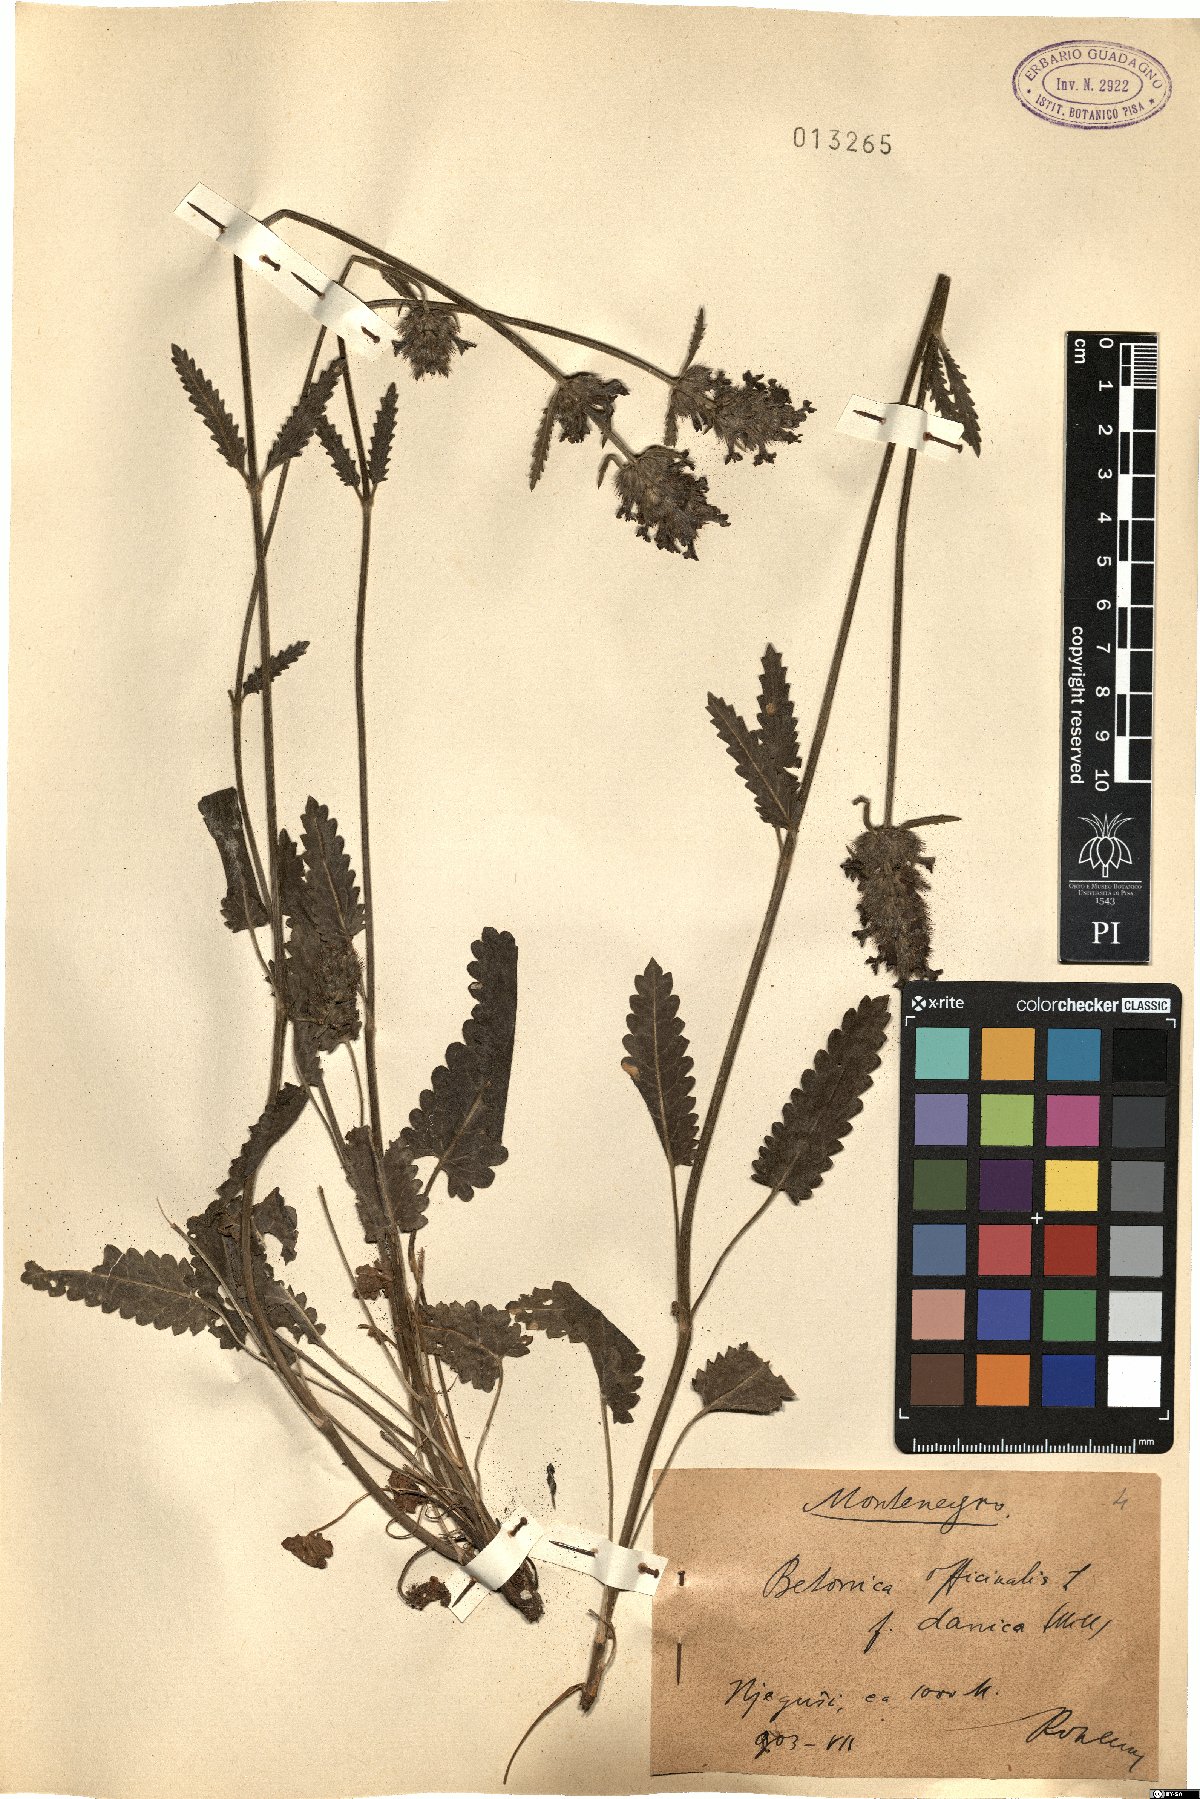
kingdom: Plantae
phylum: Tracheophyta
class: Magnoliopsida
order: Lamiales
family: Lamiaceae
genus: Betonica
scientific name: Betonica officinalis
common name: Bishop's-wort
